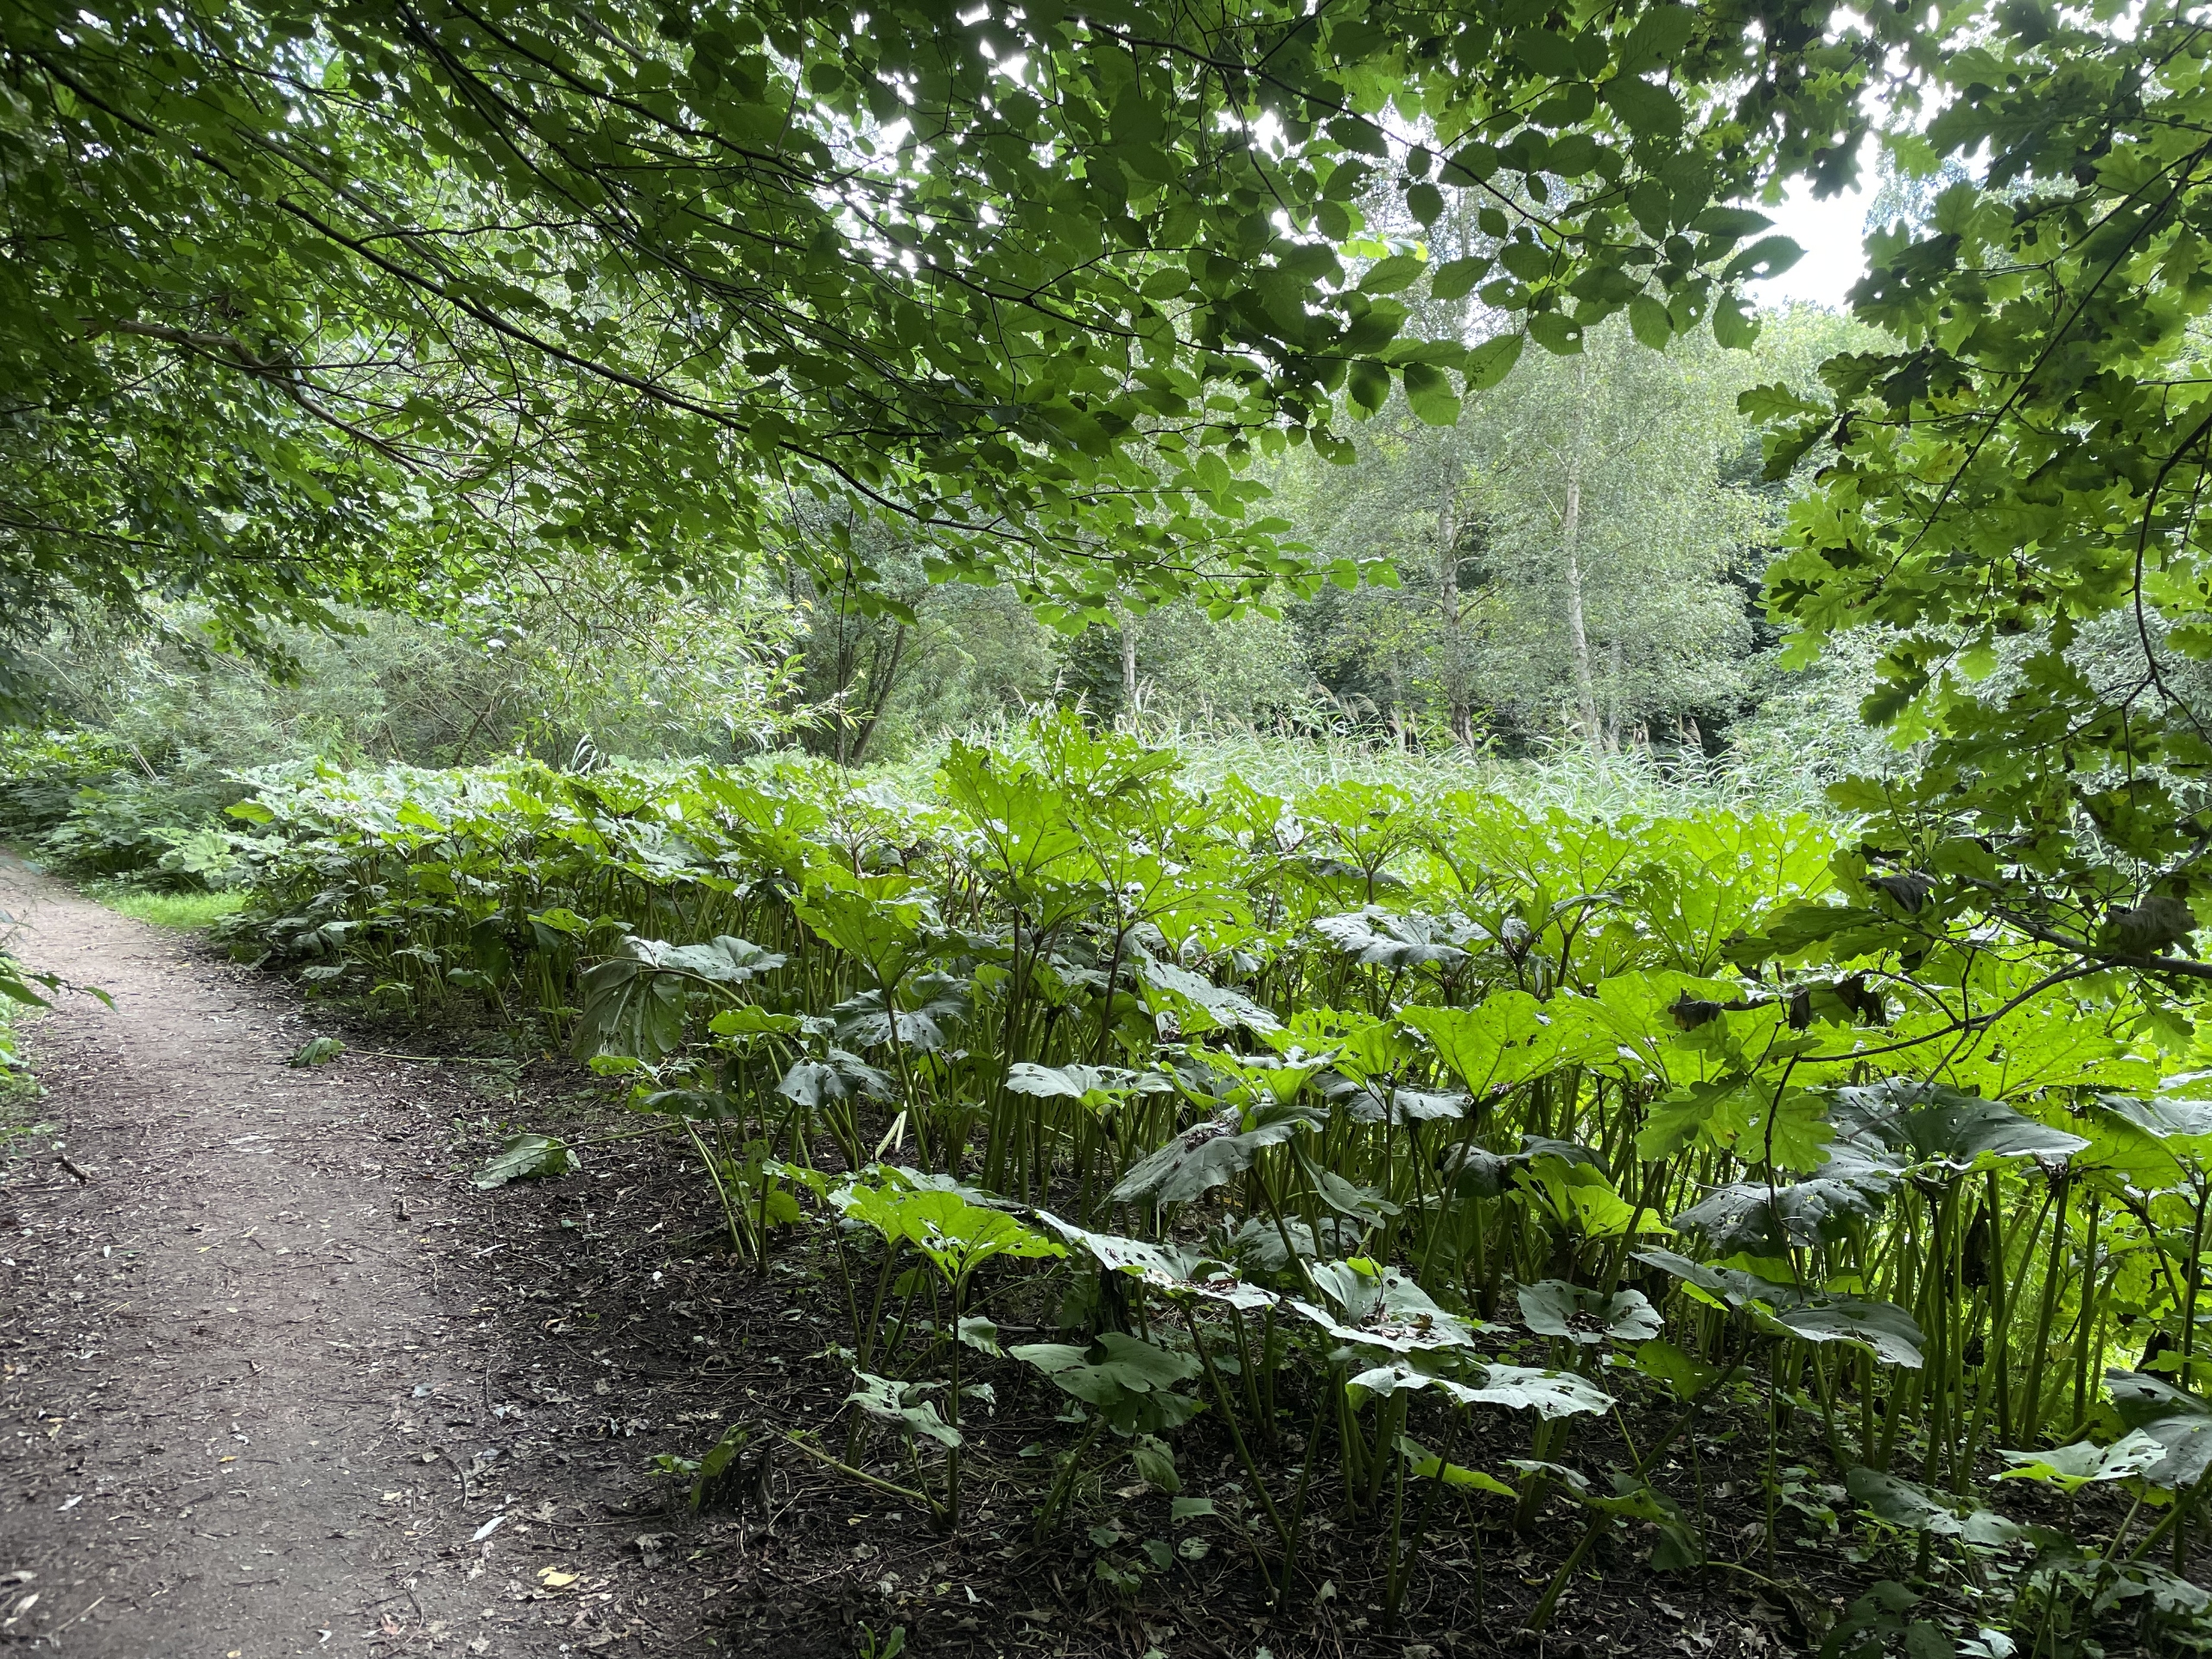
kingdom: Plantae
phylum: Tracheophyta
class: Magnoliopsida
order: Asterales
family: Asteraceae
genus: Petasites
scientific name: Petasites hybridus
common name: Rød hestehov
